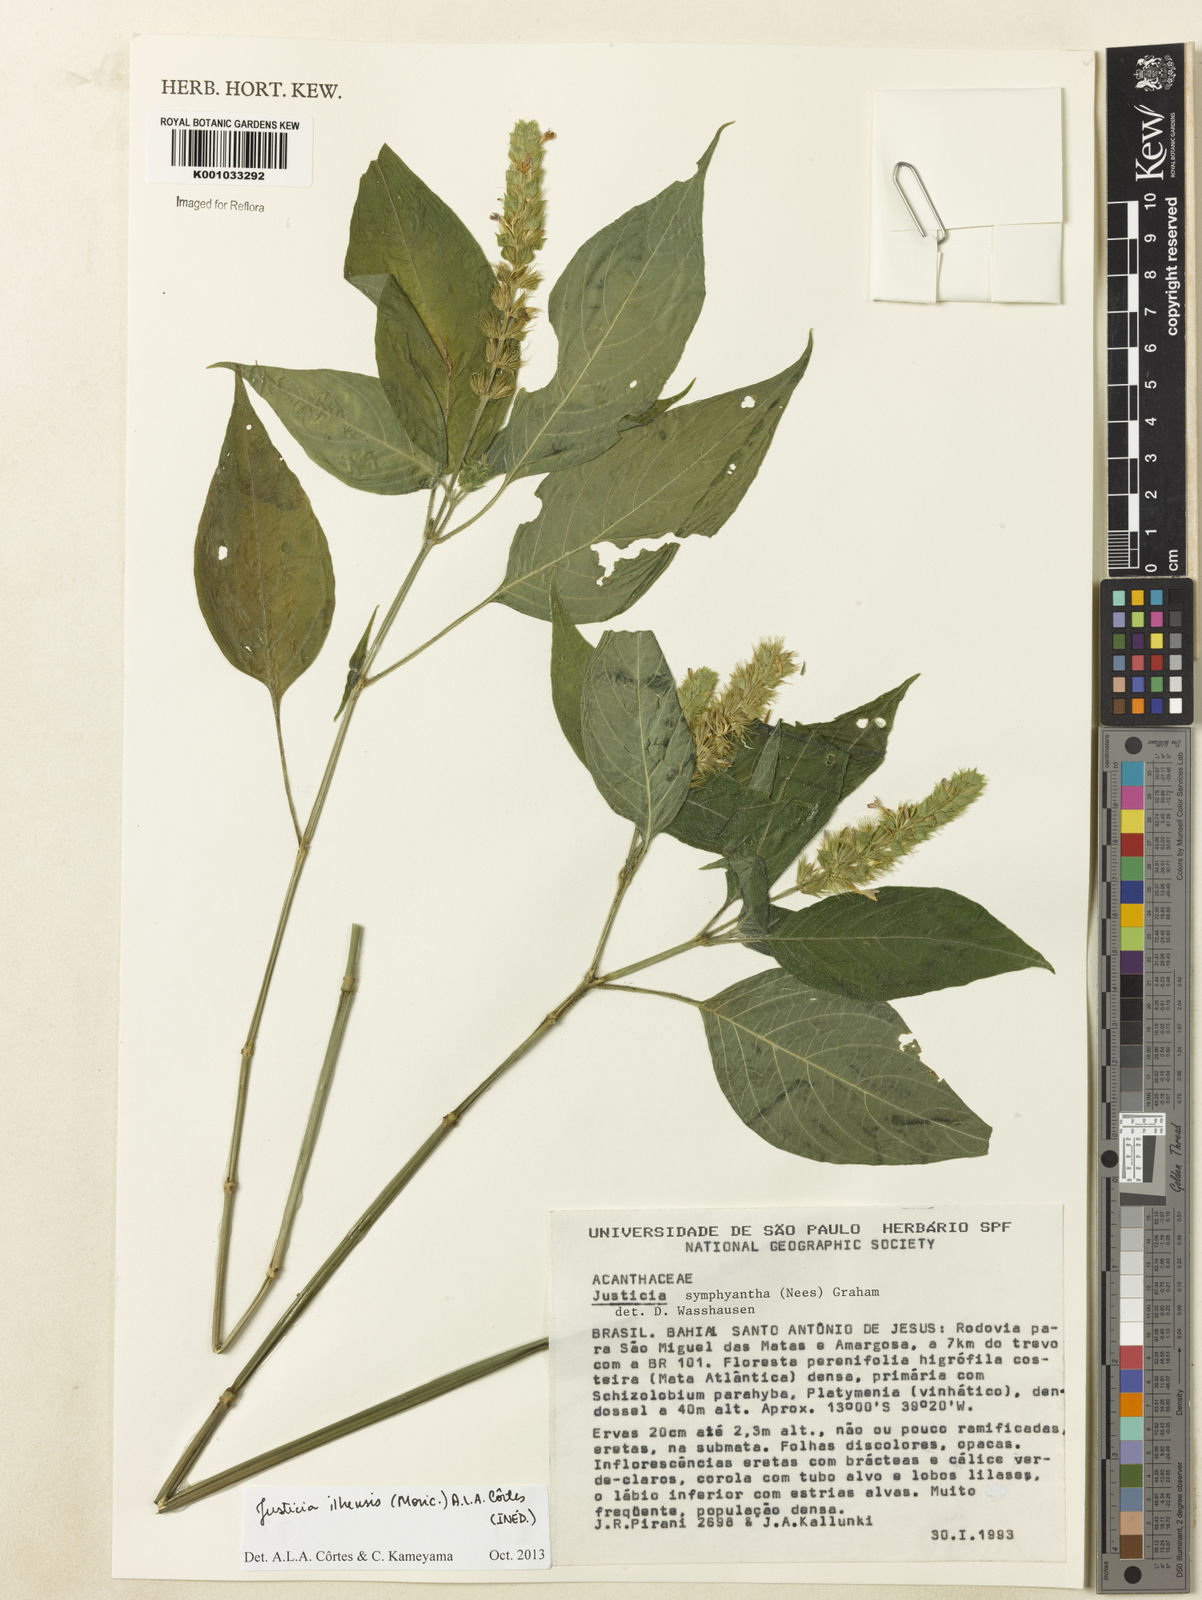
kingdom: Plantae
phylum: Tracheophyta
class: Magnoliopsida
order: Lamiales
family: Acanthaceae
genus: Justicia
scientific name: Justicia ilhensis
